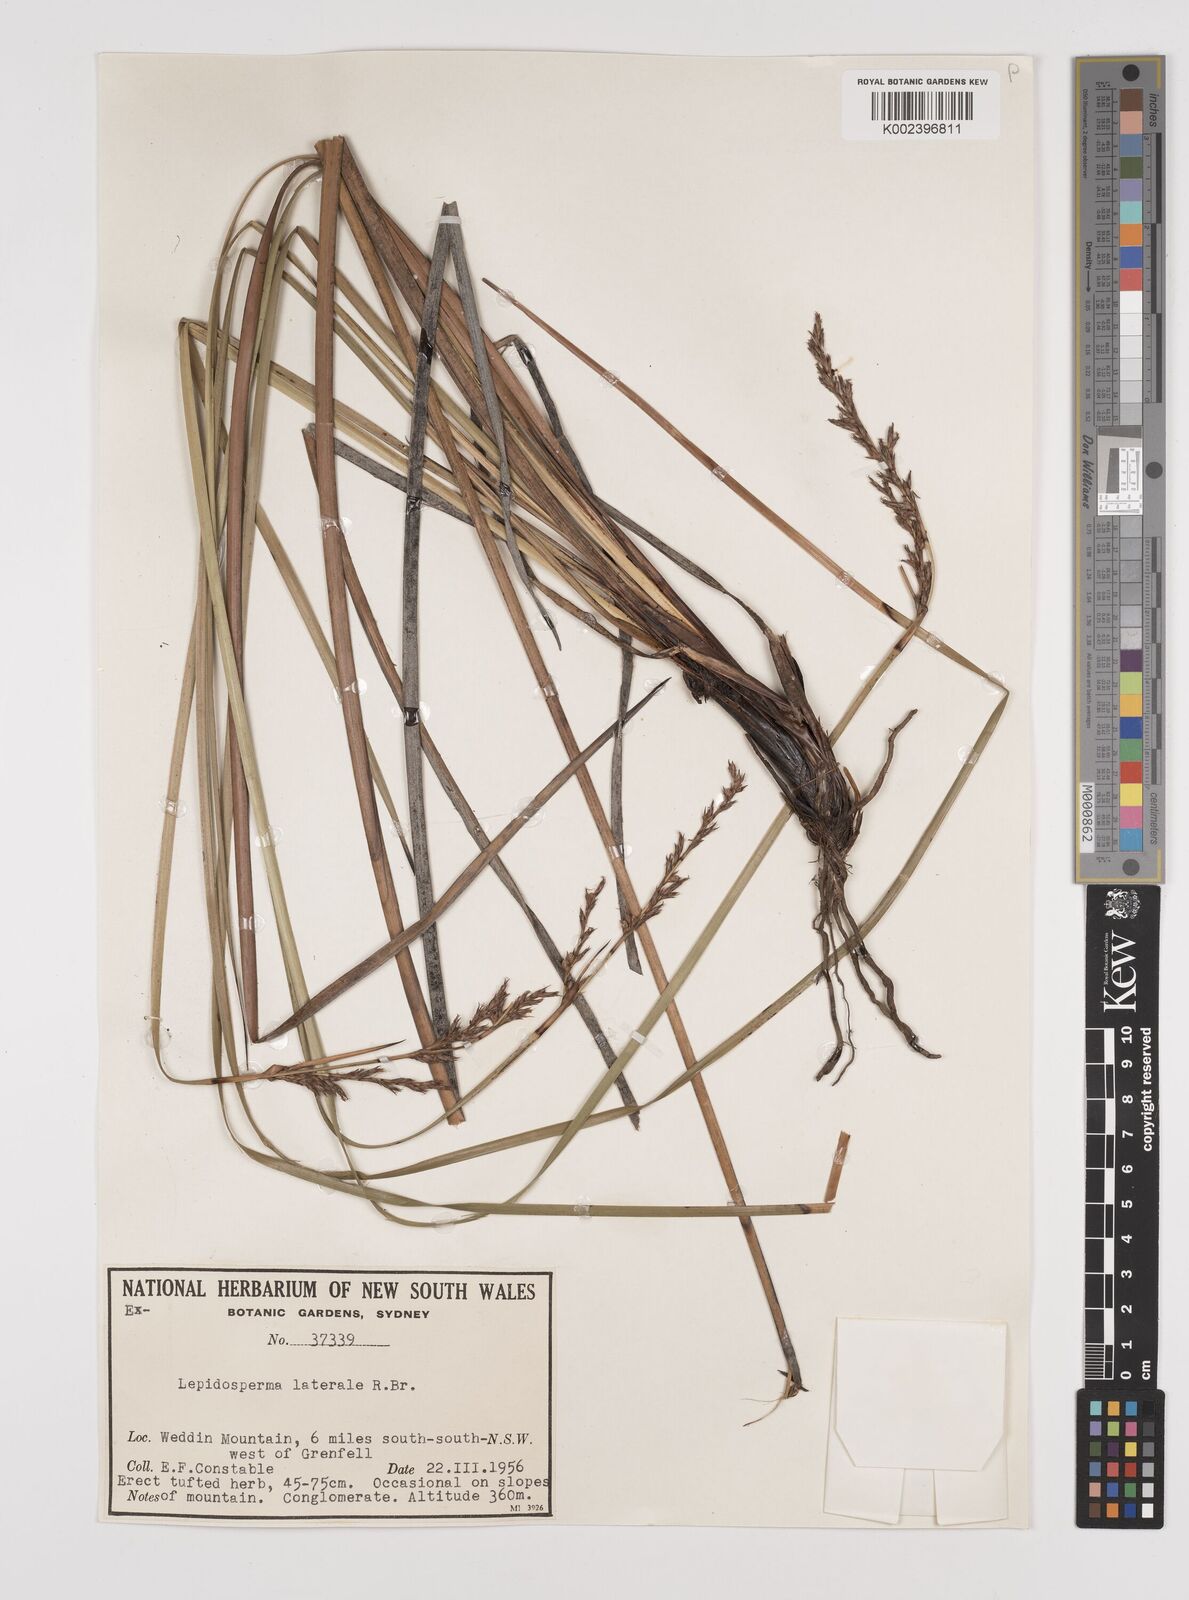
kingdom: Plantae
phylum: Tracheophyta
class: Liliopsida
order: Poales
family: Cyperaceae
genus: Lepidosperma
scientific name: Lepidosperma laterale
